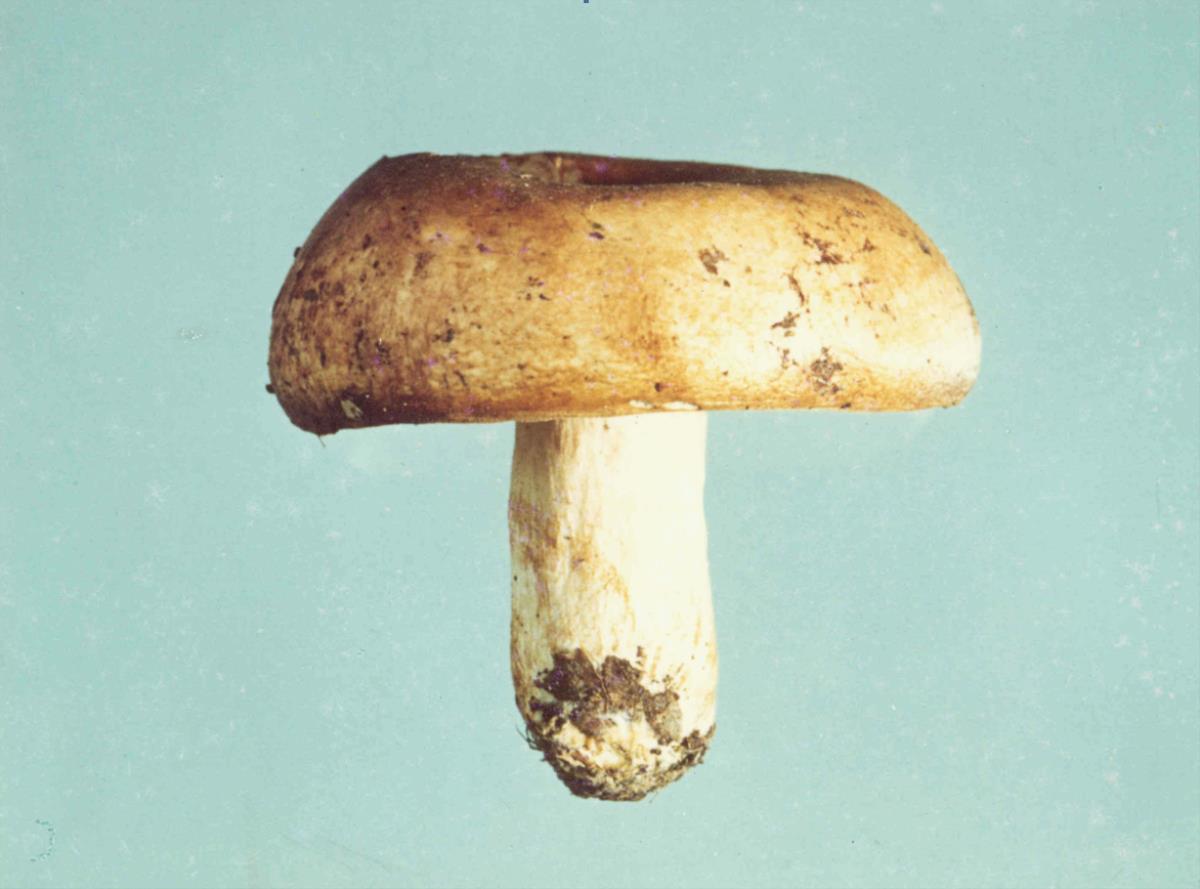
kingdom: Fungi
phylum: Basidiomycota
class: Agaricomycetes
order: Russulales
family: Russulaceae
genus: Russula
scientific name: Russula pseudoareolata
